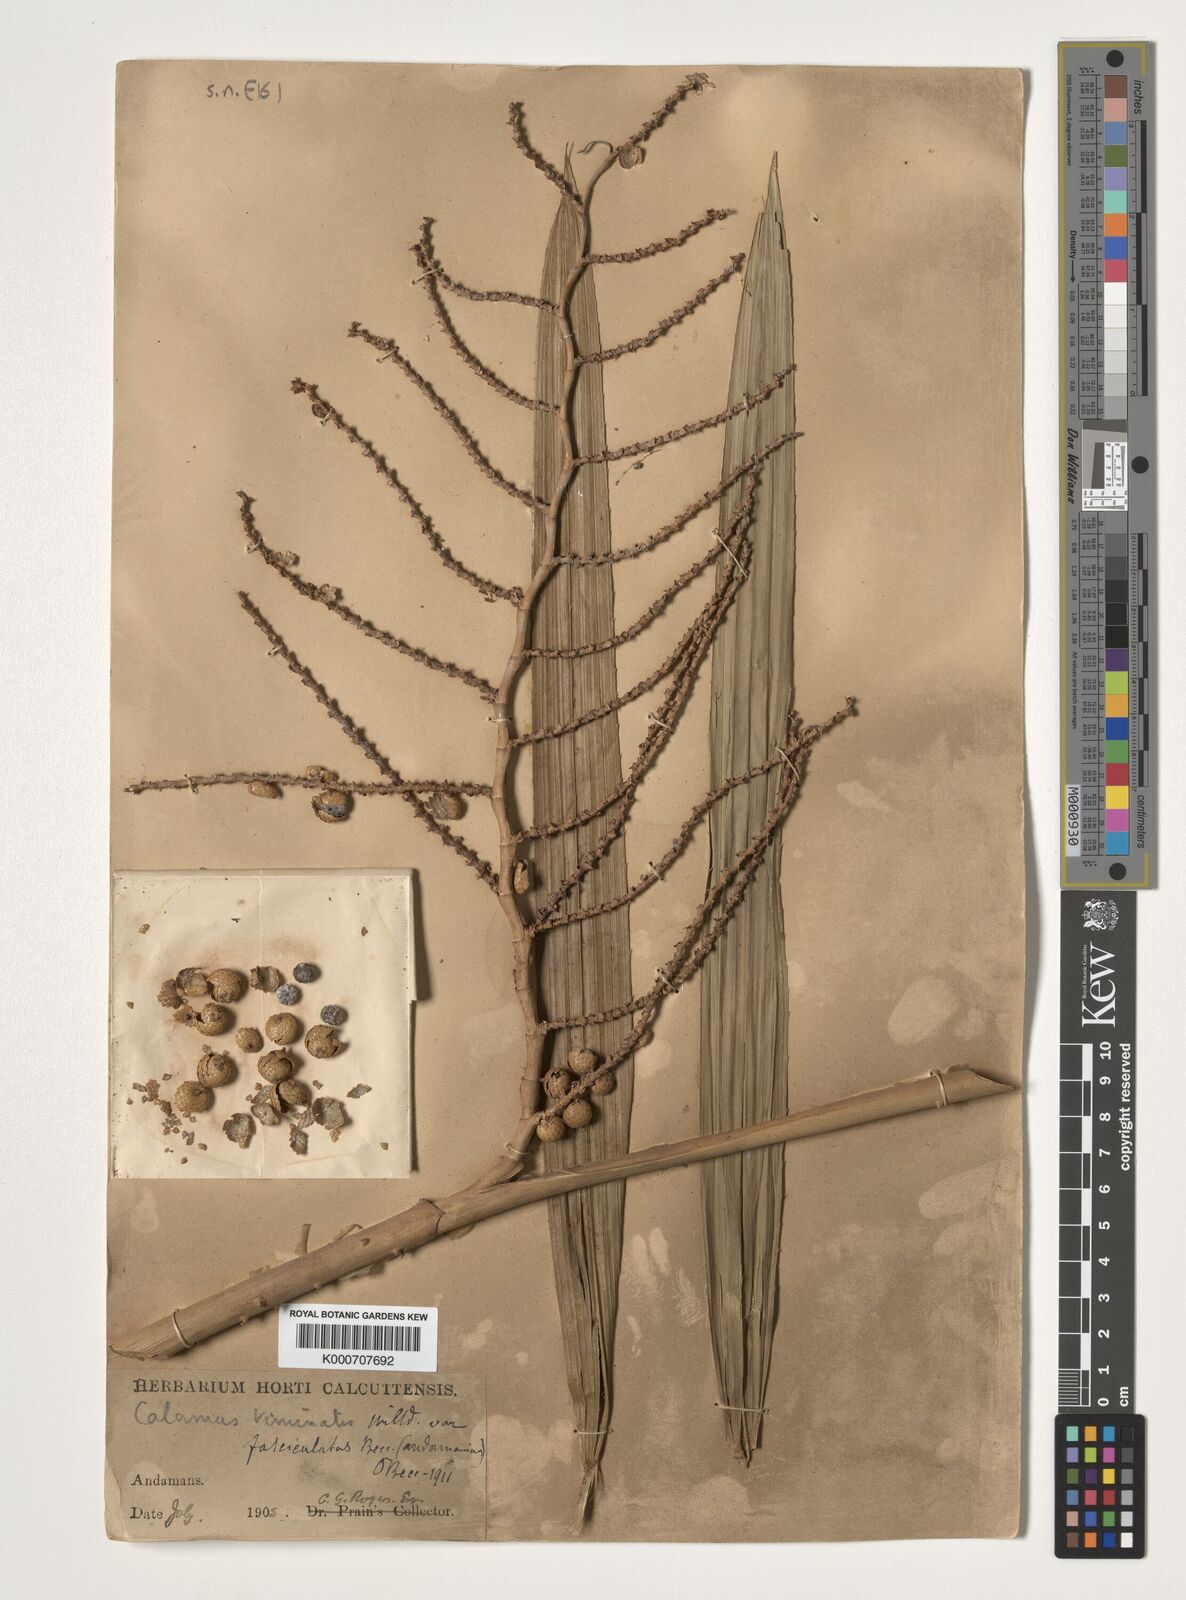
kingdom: Plantae
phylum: Tracheophyta
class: Liliopsida
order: Arecales
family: Arecaceae
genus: Calamus
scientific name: Calamus viminalis
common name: Osier-like rattan palm
